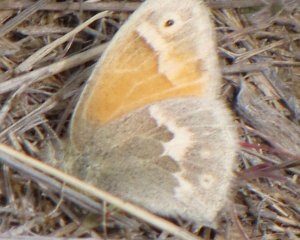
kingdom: Animalia
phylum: Arthropoda
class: Insecta
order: Lepidoptera
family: Nymphalidae
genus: Coenonympha
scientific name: Coenonympha tullia
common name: Large Heath
